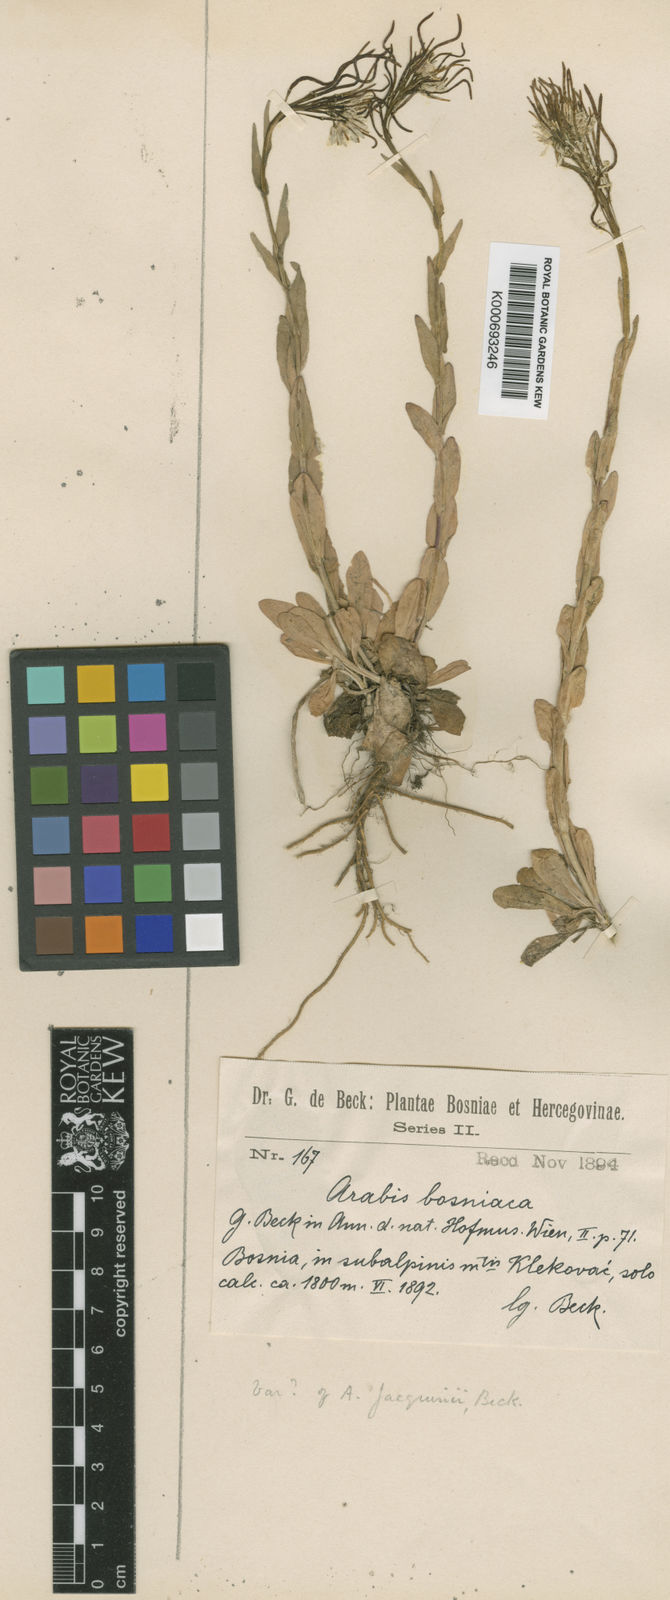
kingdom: Plantae
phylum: Tracheophyta
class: Magnoliopsida
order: Brassicales
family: Brassicaceae
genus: Arabis
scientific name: Arabis sudetica
